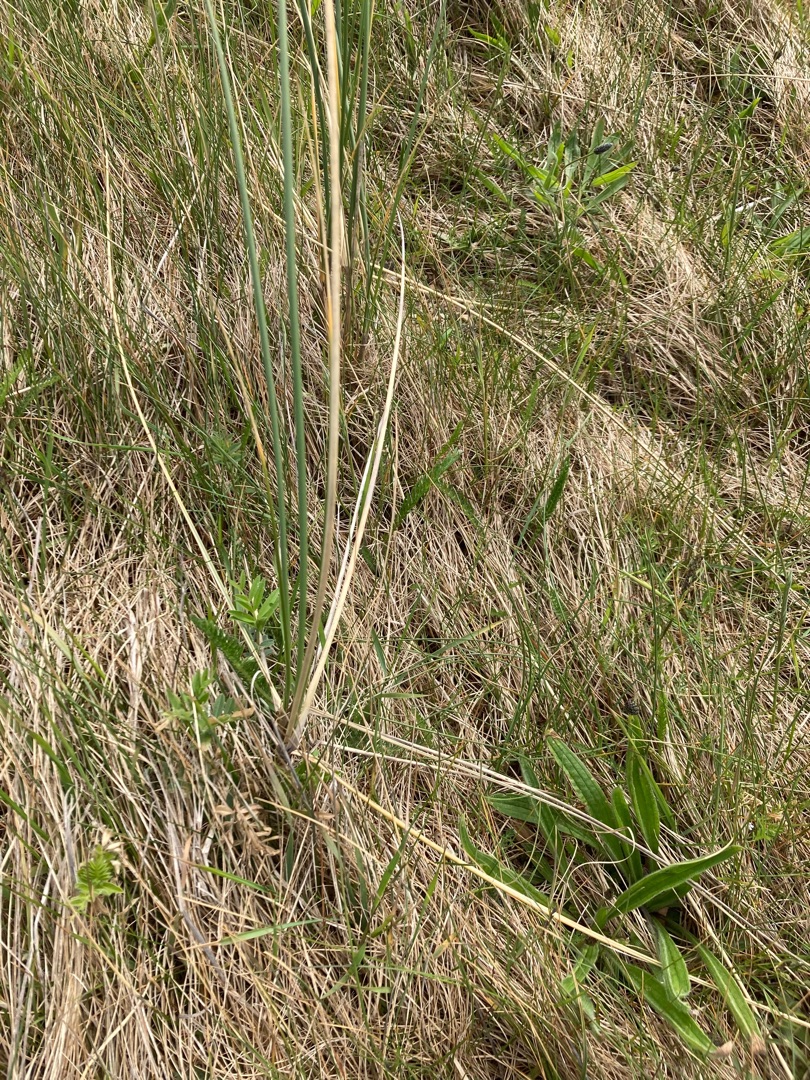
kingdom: Plantae
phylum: Tracheophyta
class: Liliopsida
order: Poales
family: Poaceae
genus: Calamagrostis
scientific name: Calamagrostis arenaria
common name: Sand-hjælme
